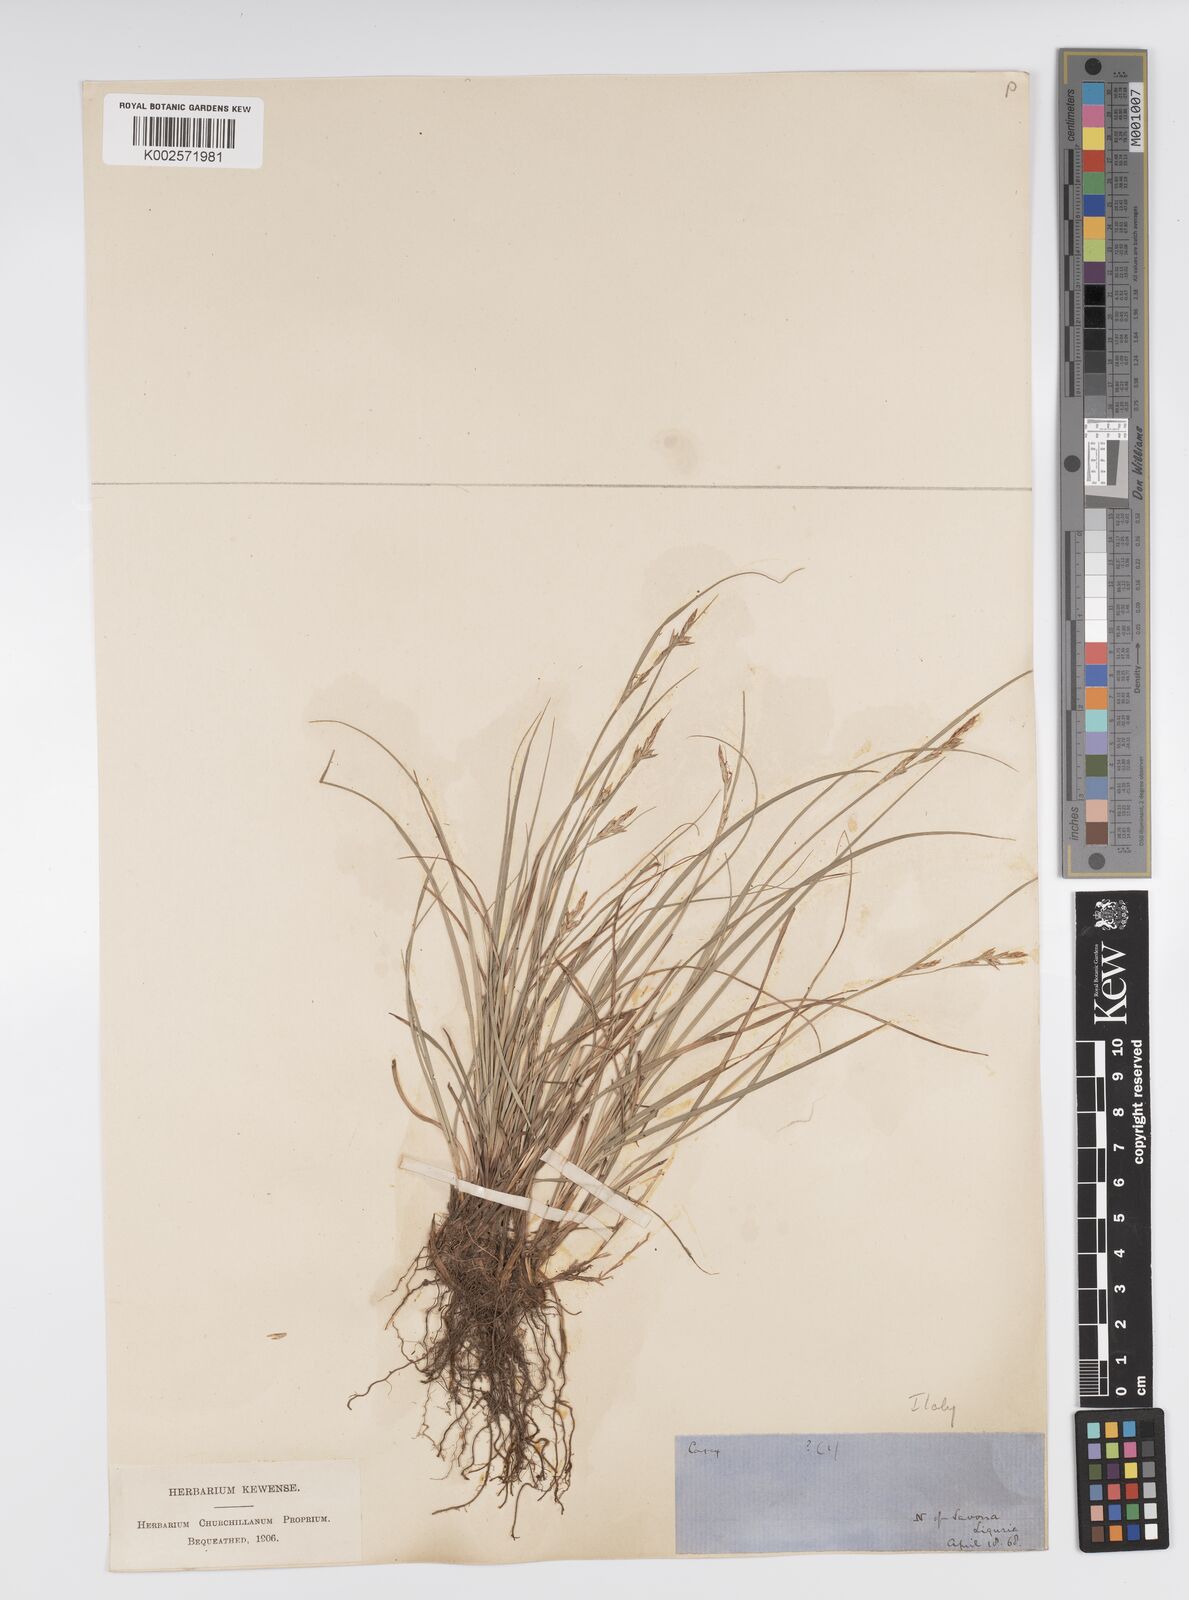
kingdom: Plantae
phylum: Tracheophyta
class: Liliopsida
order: Poales
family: Cyperaceae
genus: Carex
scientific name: Carex halleriana
